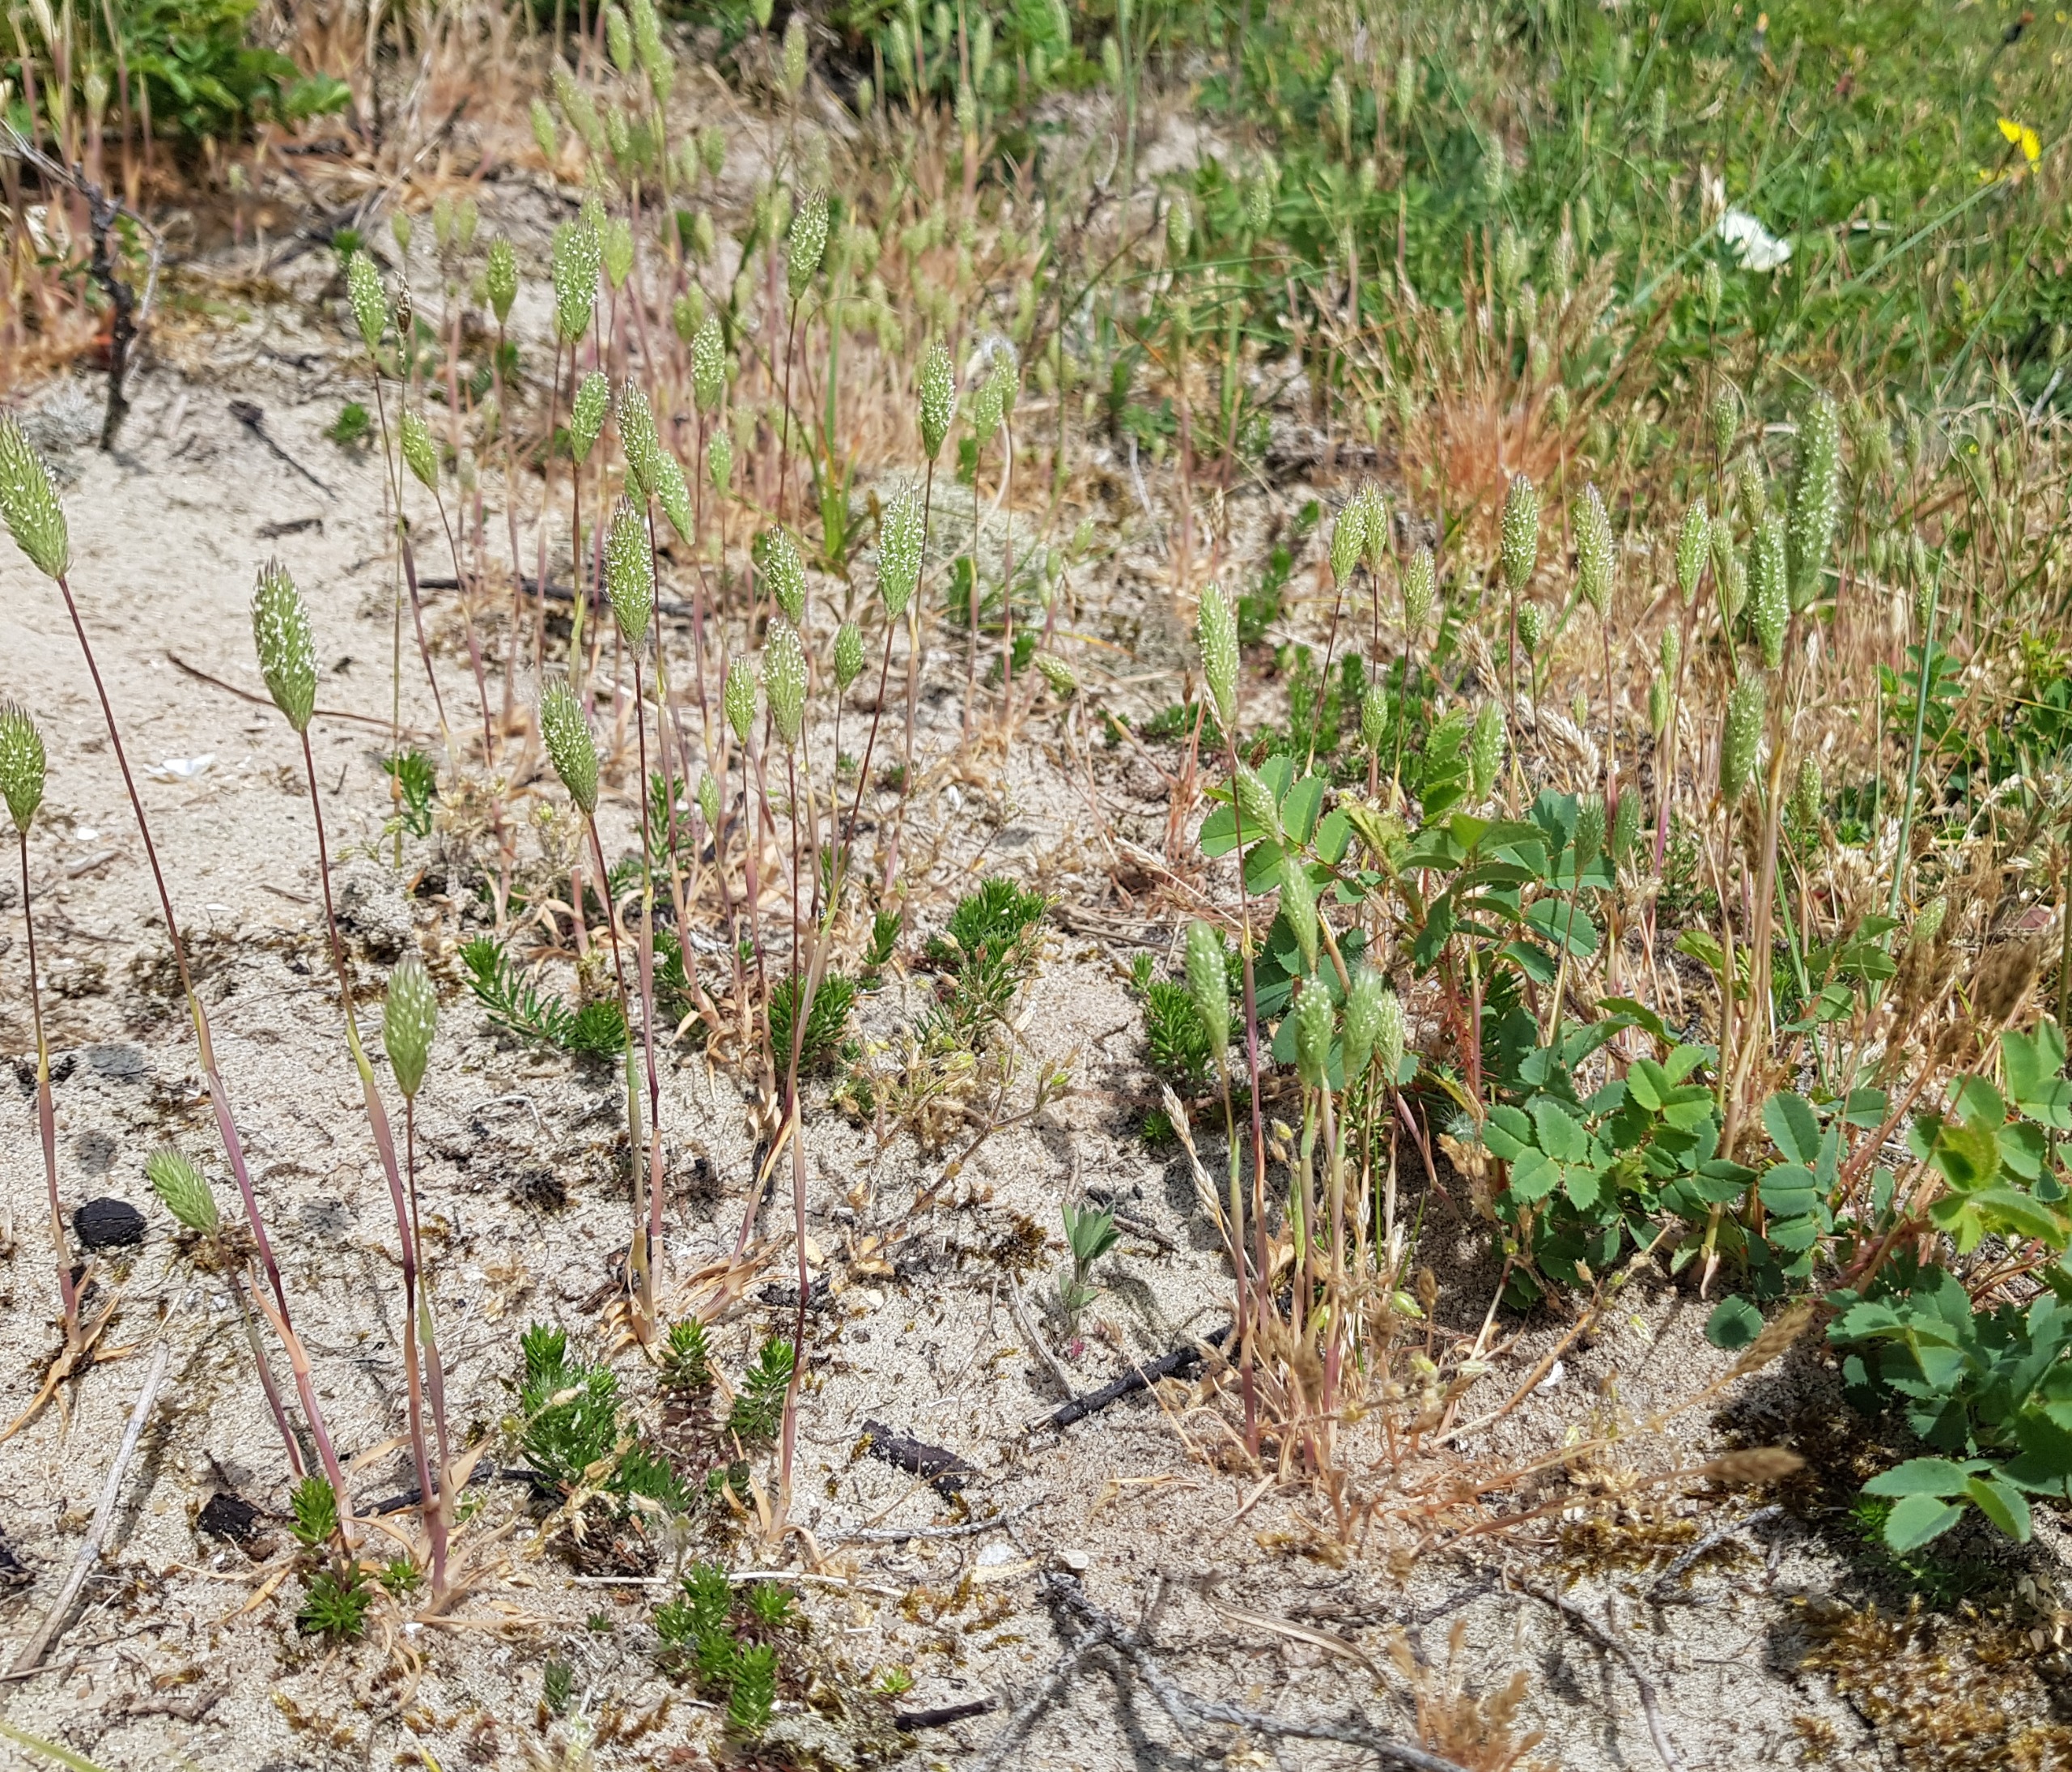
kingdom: Plantae
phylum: Tracheophyta
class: Liliopsida
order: Poales
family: Poaceae
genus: Phleum
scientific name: Phleum arenarium
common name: Sand-rottehale
